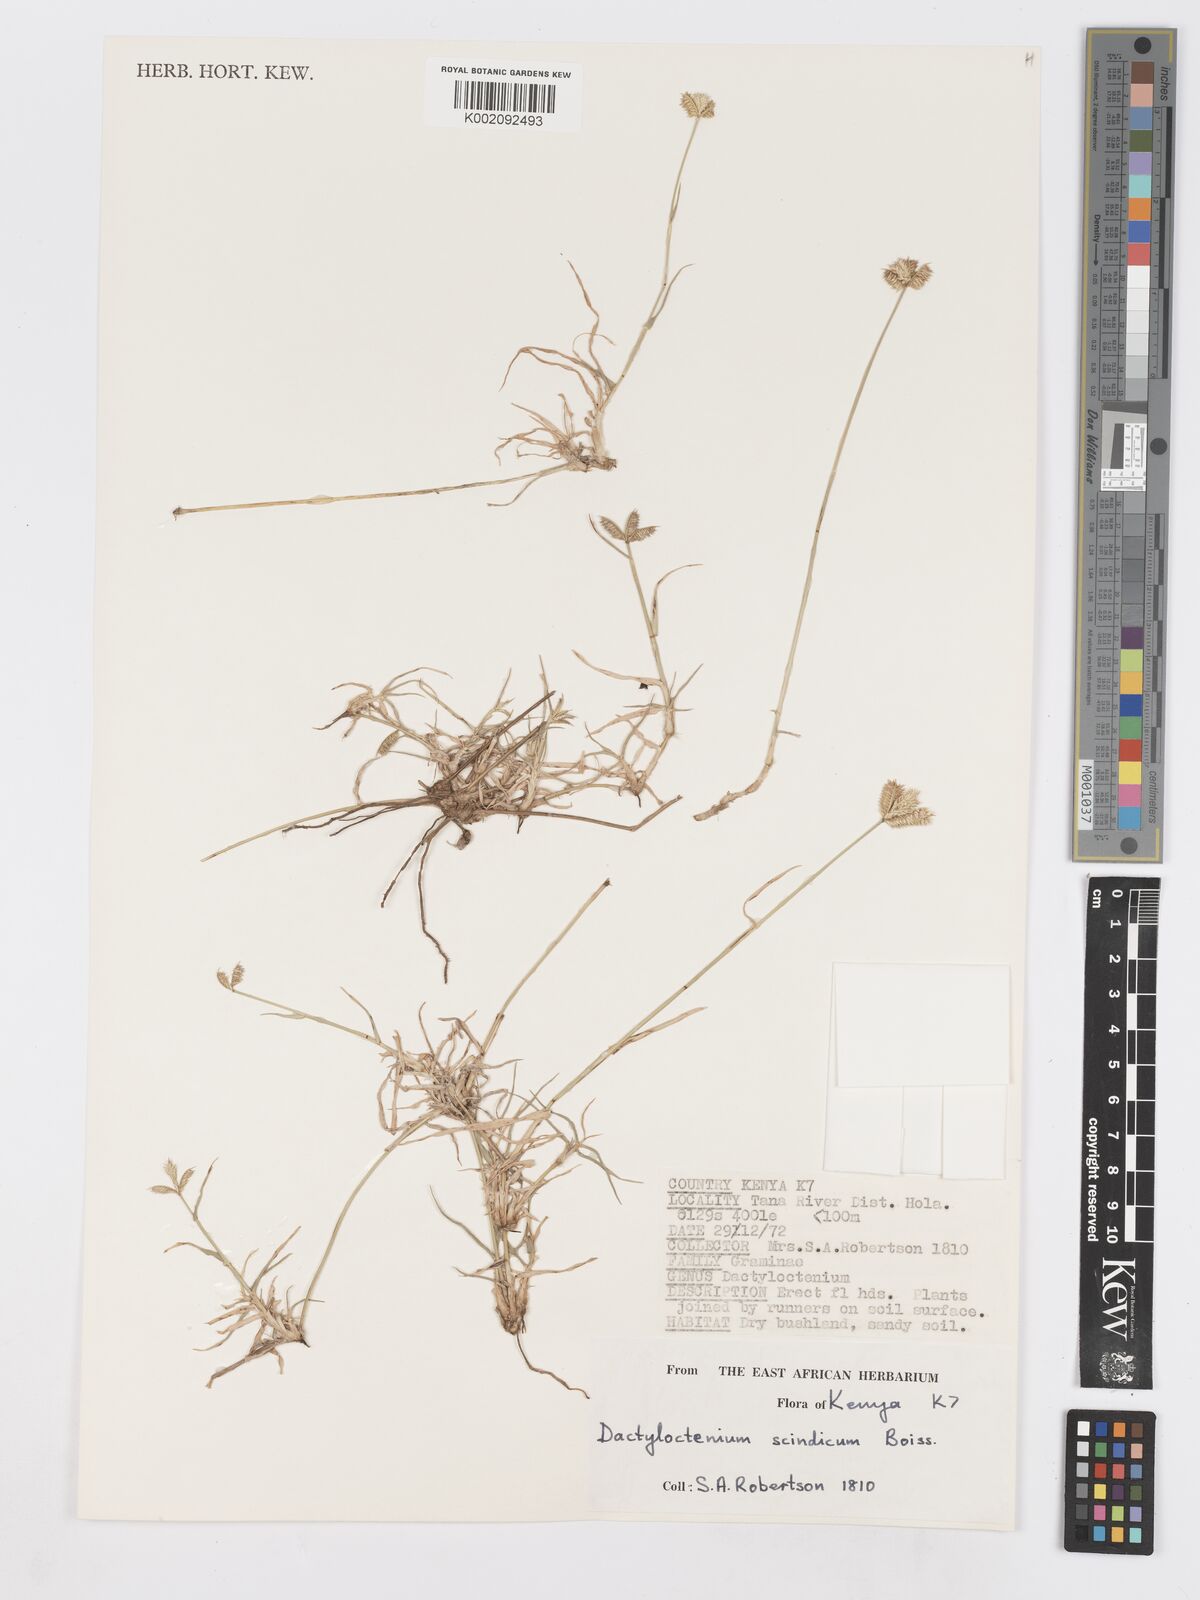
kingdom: Plantae
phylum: Tracheophyta
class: Liliopsida
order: Poales
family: Poaceae
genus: Dactyloctenium
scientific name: Dactyloctenium scindicum
